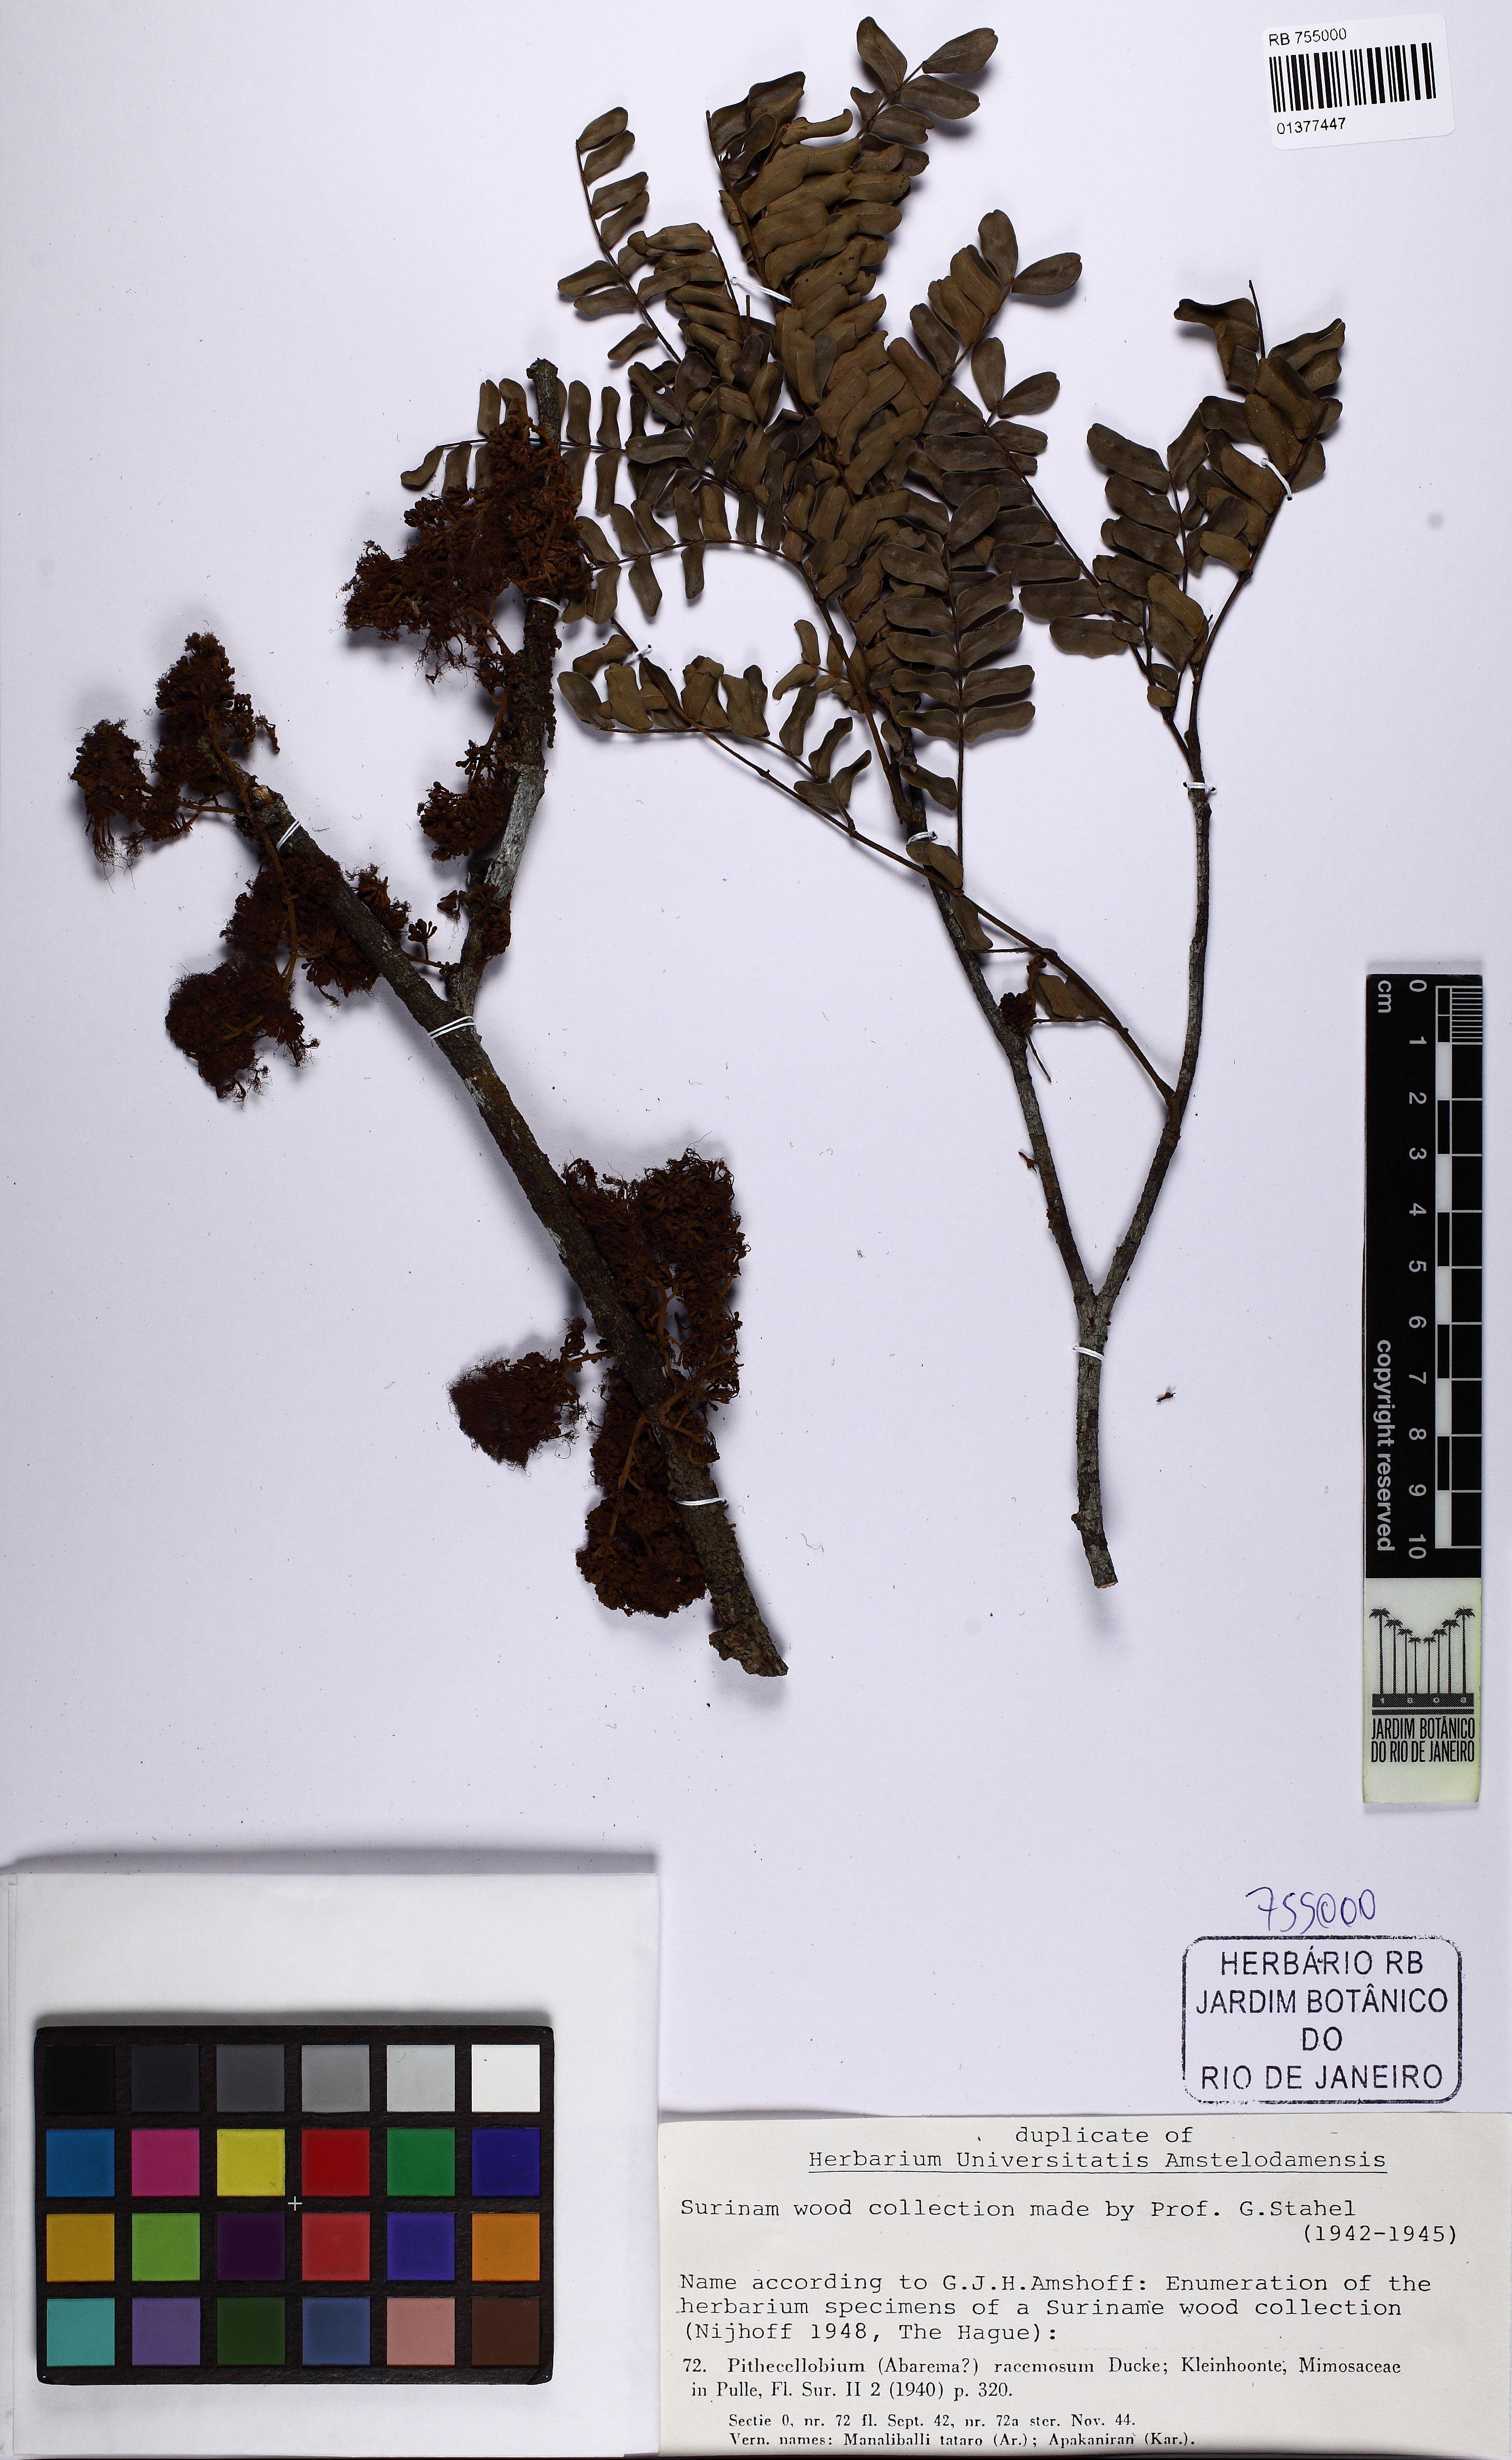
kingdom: Plantae
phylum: Tracheophyta
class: Magnoliopsida
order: Fabales
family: Fabaceae
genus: Zygia
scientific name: Zygia racemosa
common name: Marblewood
